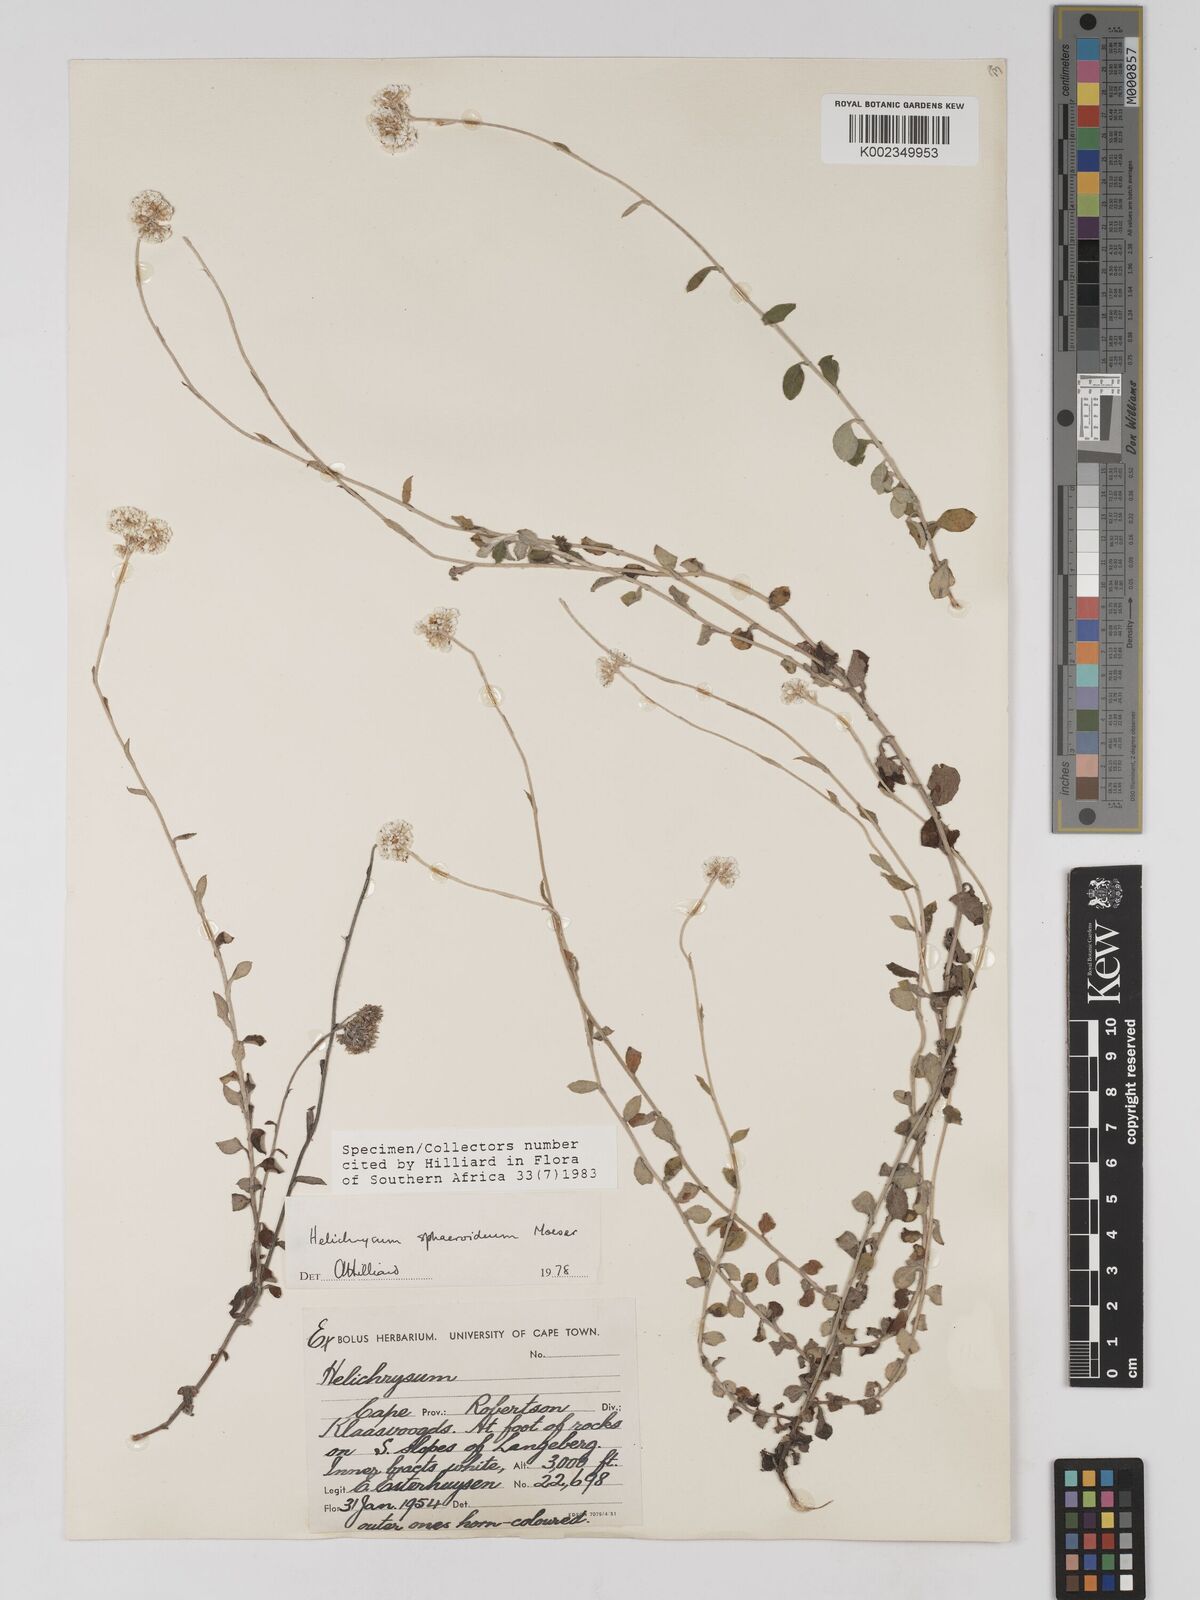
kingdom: Plantae
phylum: Tracheophyta
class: Magnoliopsida
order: Asterales
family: Asteraceae
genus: Helichrysum
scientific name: Helichrysum sphaeroideum
